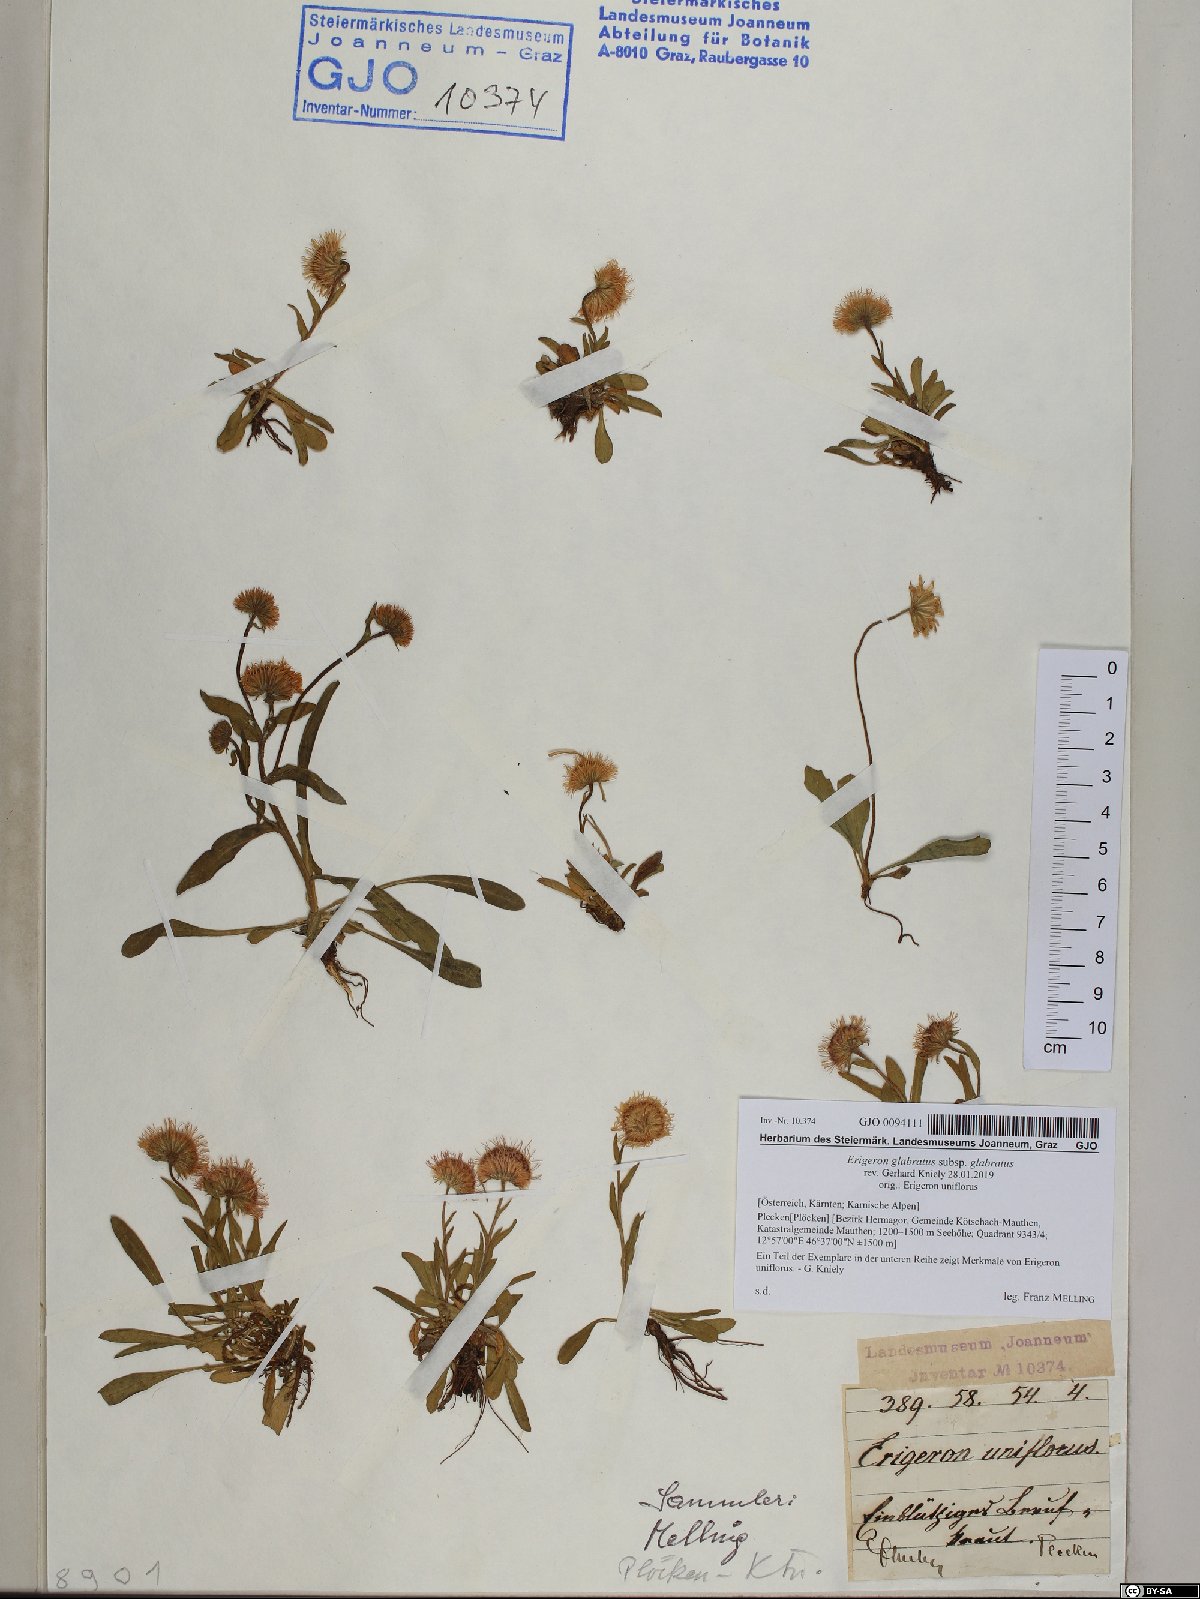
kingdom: Plantae
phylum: Tracheophyta
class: Magnoliopsida
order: Asterales
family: Asteraceae
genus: Erigeron
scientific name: Erigeron glabratus
